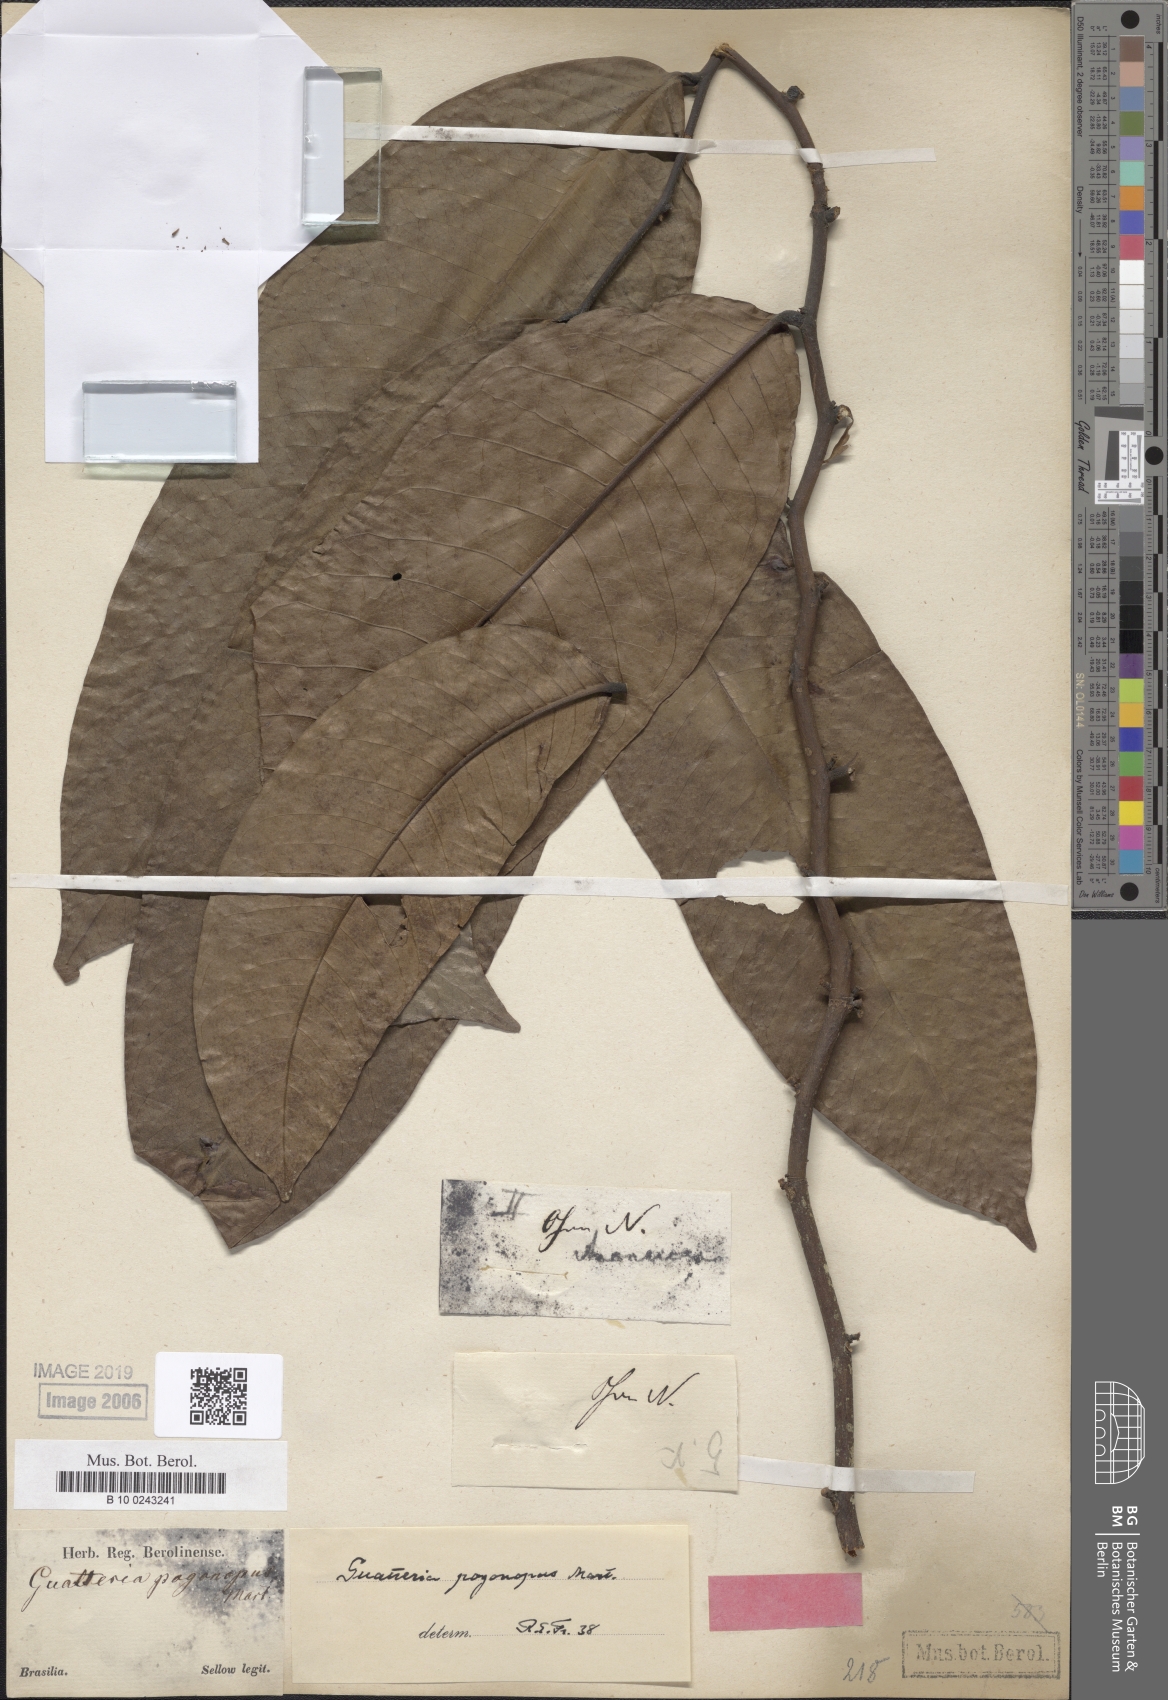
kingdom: Plantae
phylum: Tracheophyta
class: Magnoliopsida
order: Magnoliales
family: Annonaceae
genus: Guatteria
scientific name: Guatteria pogonopus
